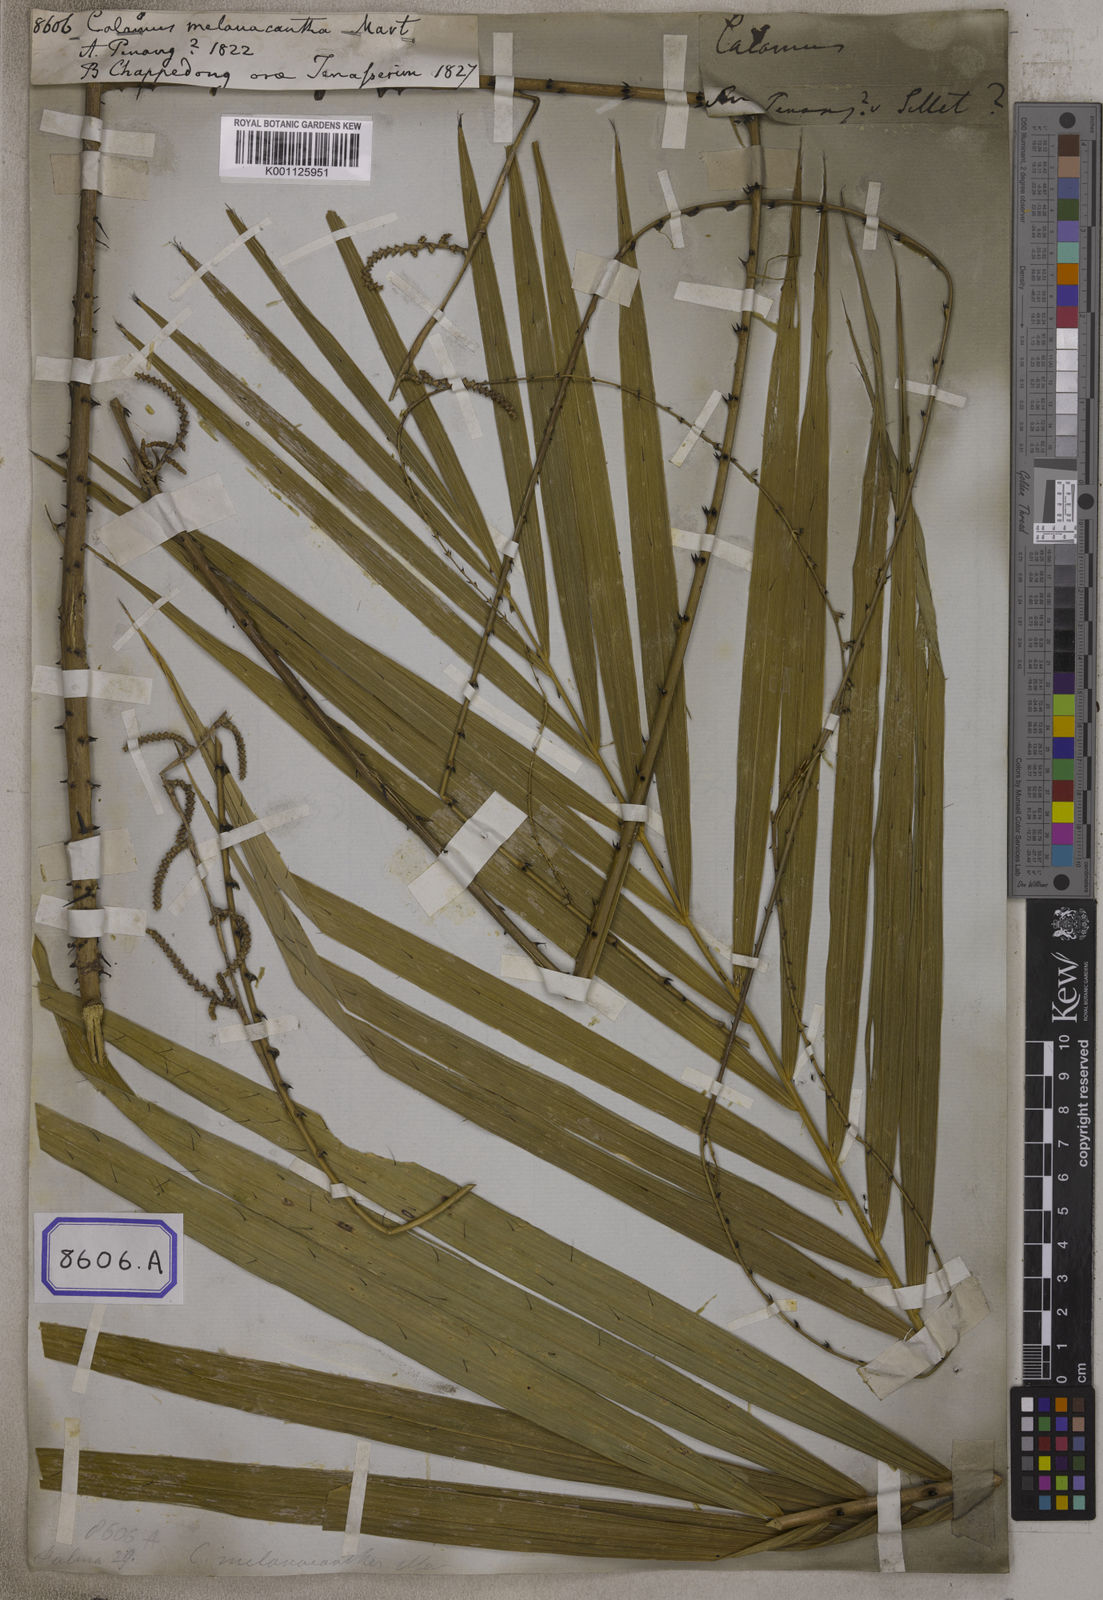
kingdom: Plantae
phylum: Tracheophyta
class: Liliopsida
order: Arecales
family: Arecaceae
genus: Calamus
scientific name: Calamus
